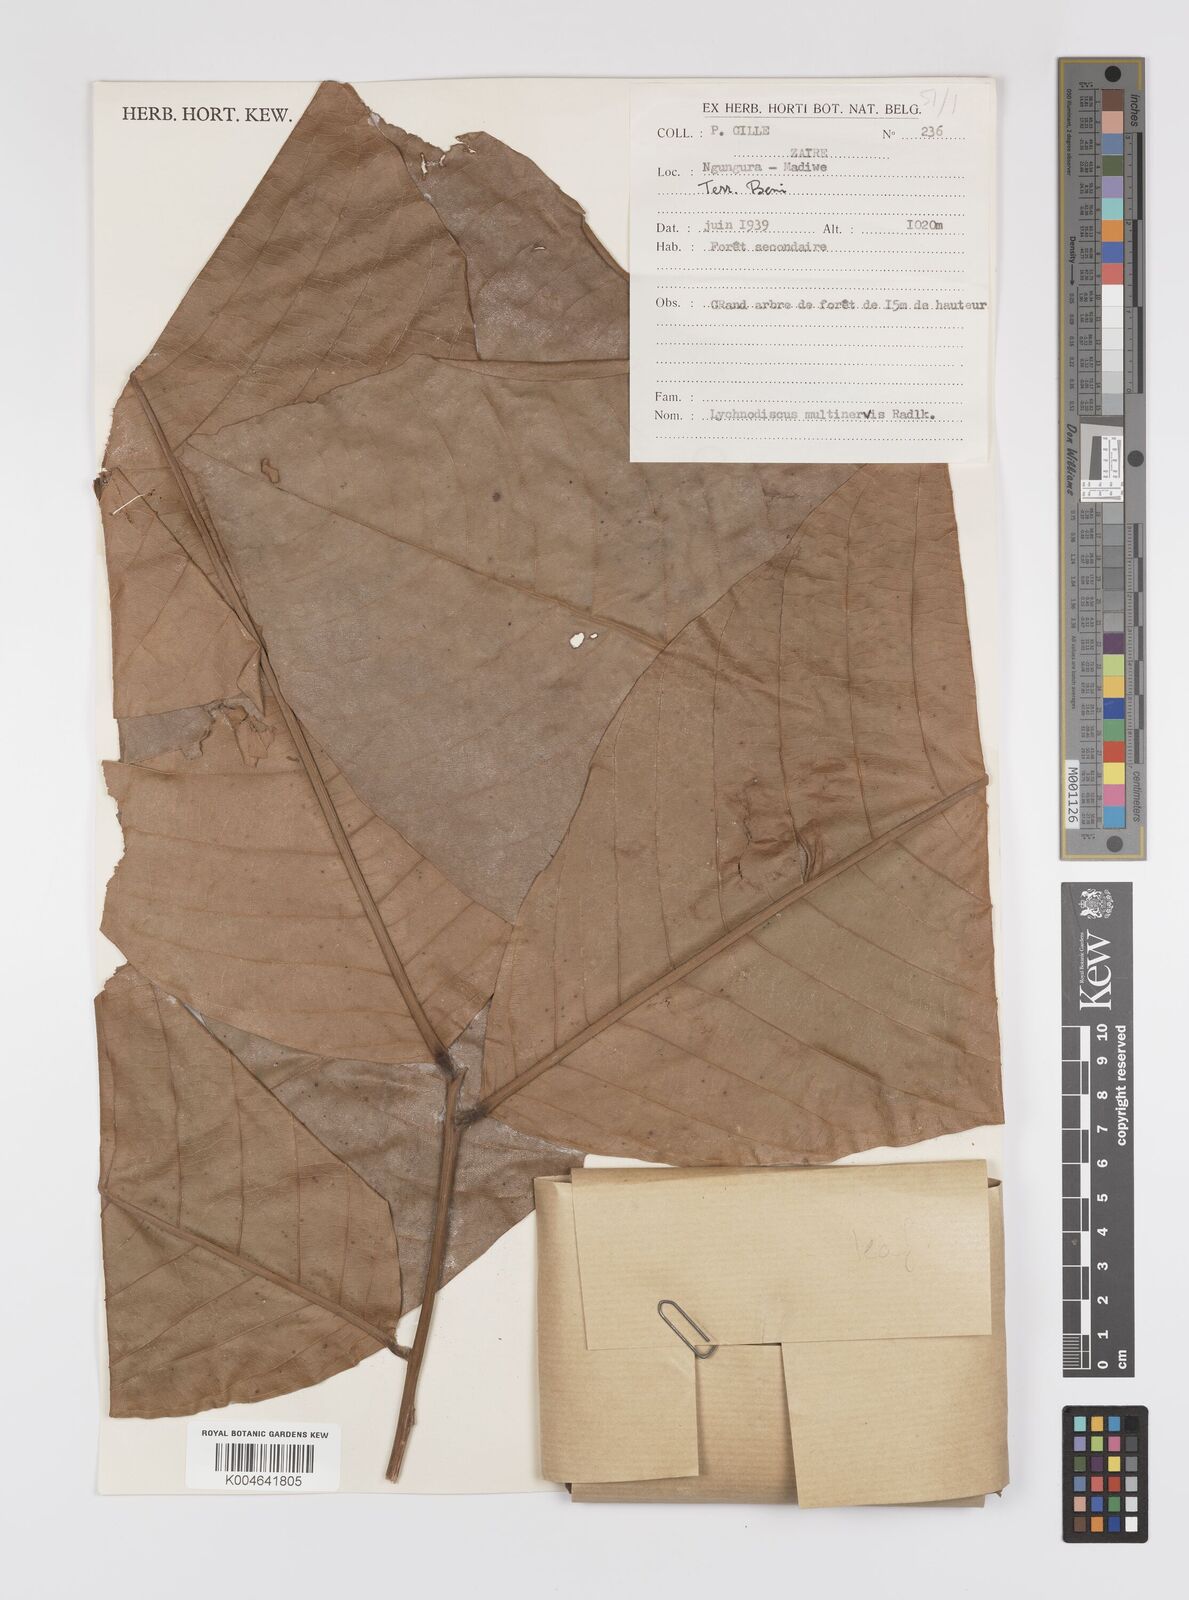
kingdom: Plantae
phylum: Tracheophyta
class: Magnoliopsida
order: Sapindales
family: Sapindaceae
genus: Lychnodiscus
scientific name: Lychnodiscus multinervis
